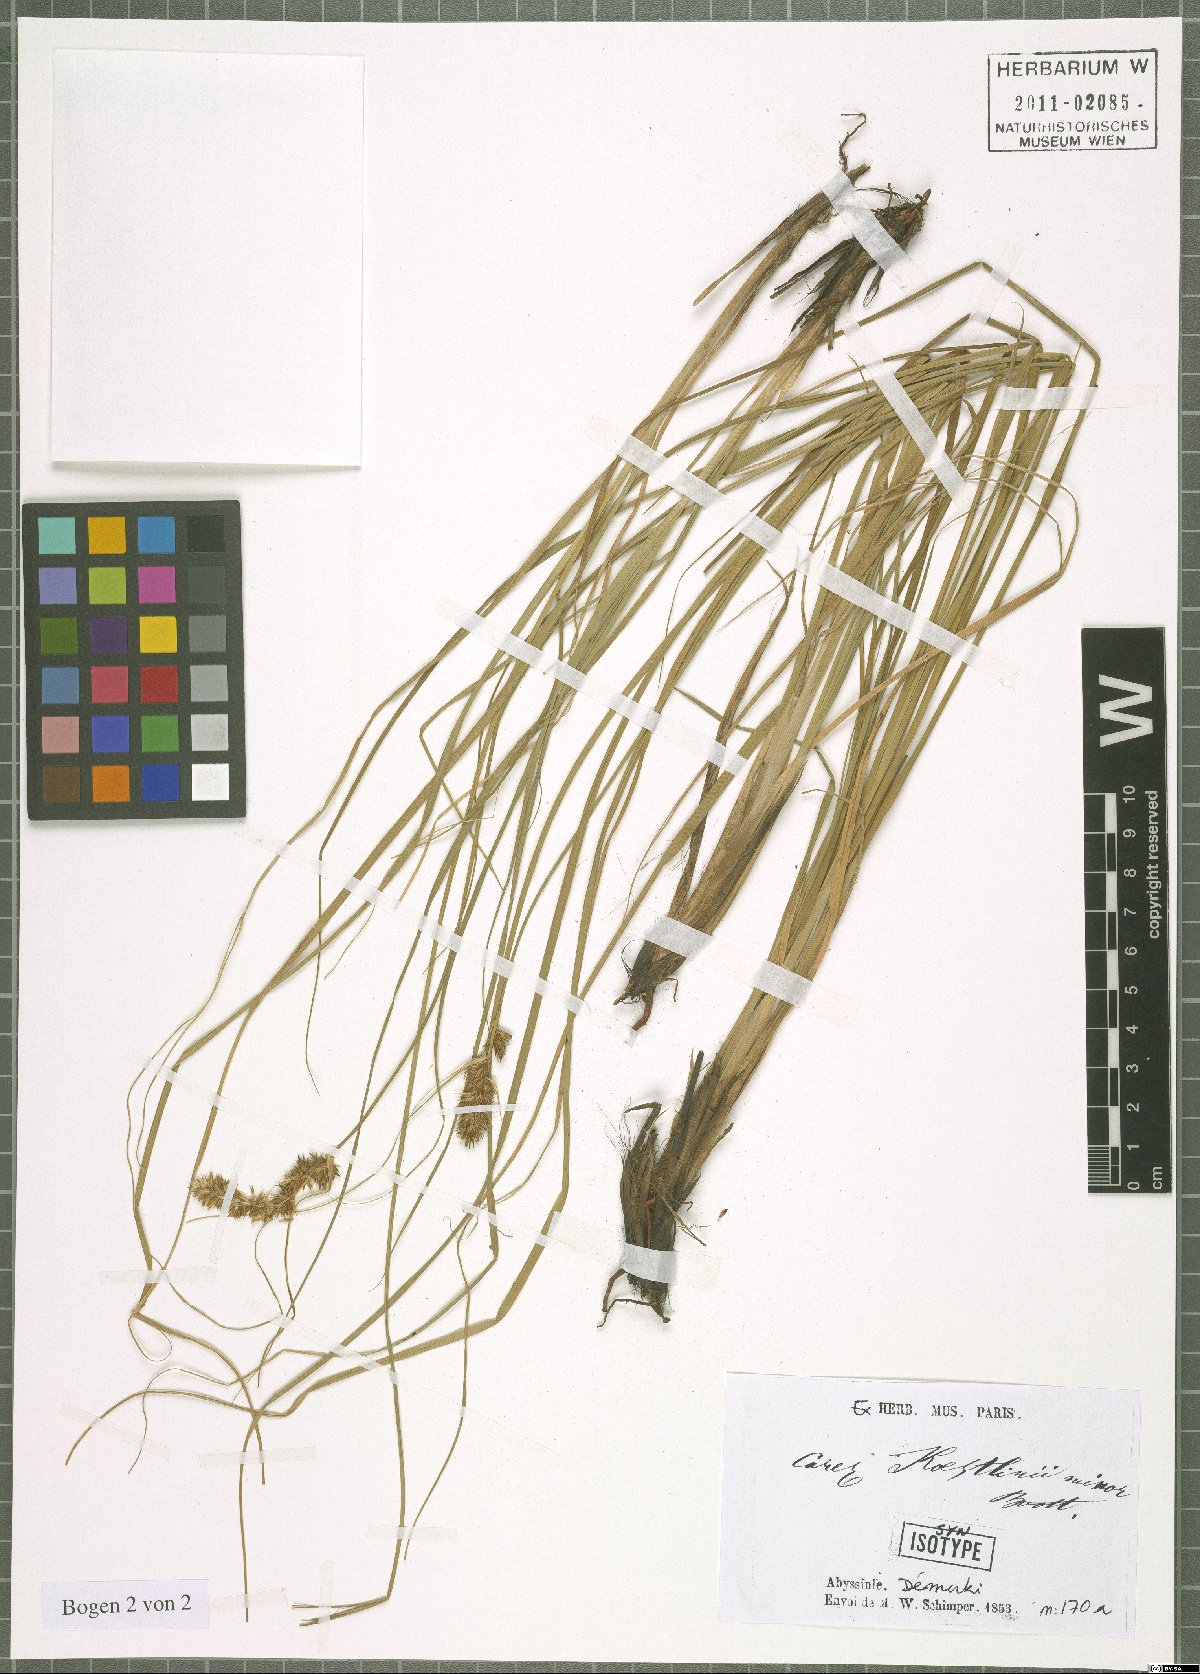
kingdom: Plantae
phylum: Tracheophyta
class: Liliopsida
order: Poales
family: Cyperaceae
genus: Carex
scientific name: Carex erythrorrhiza
